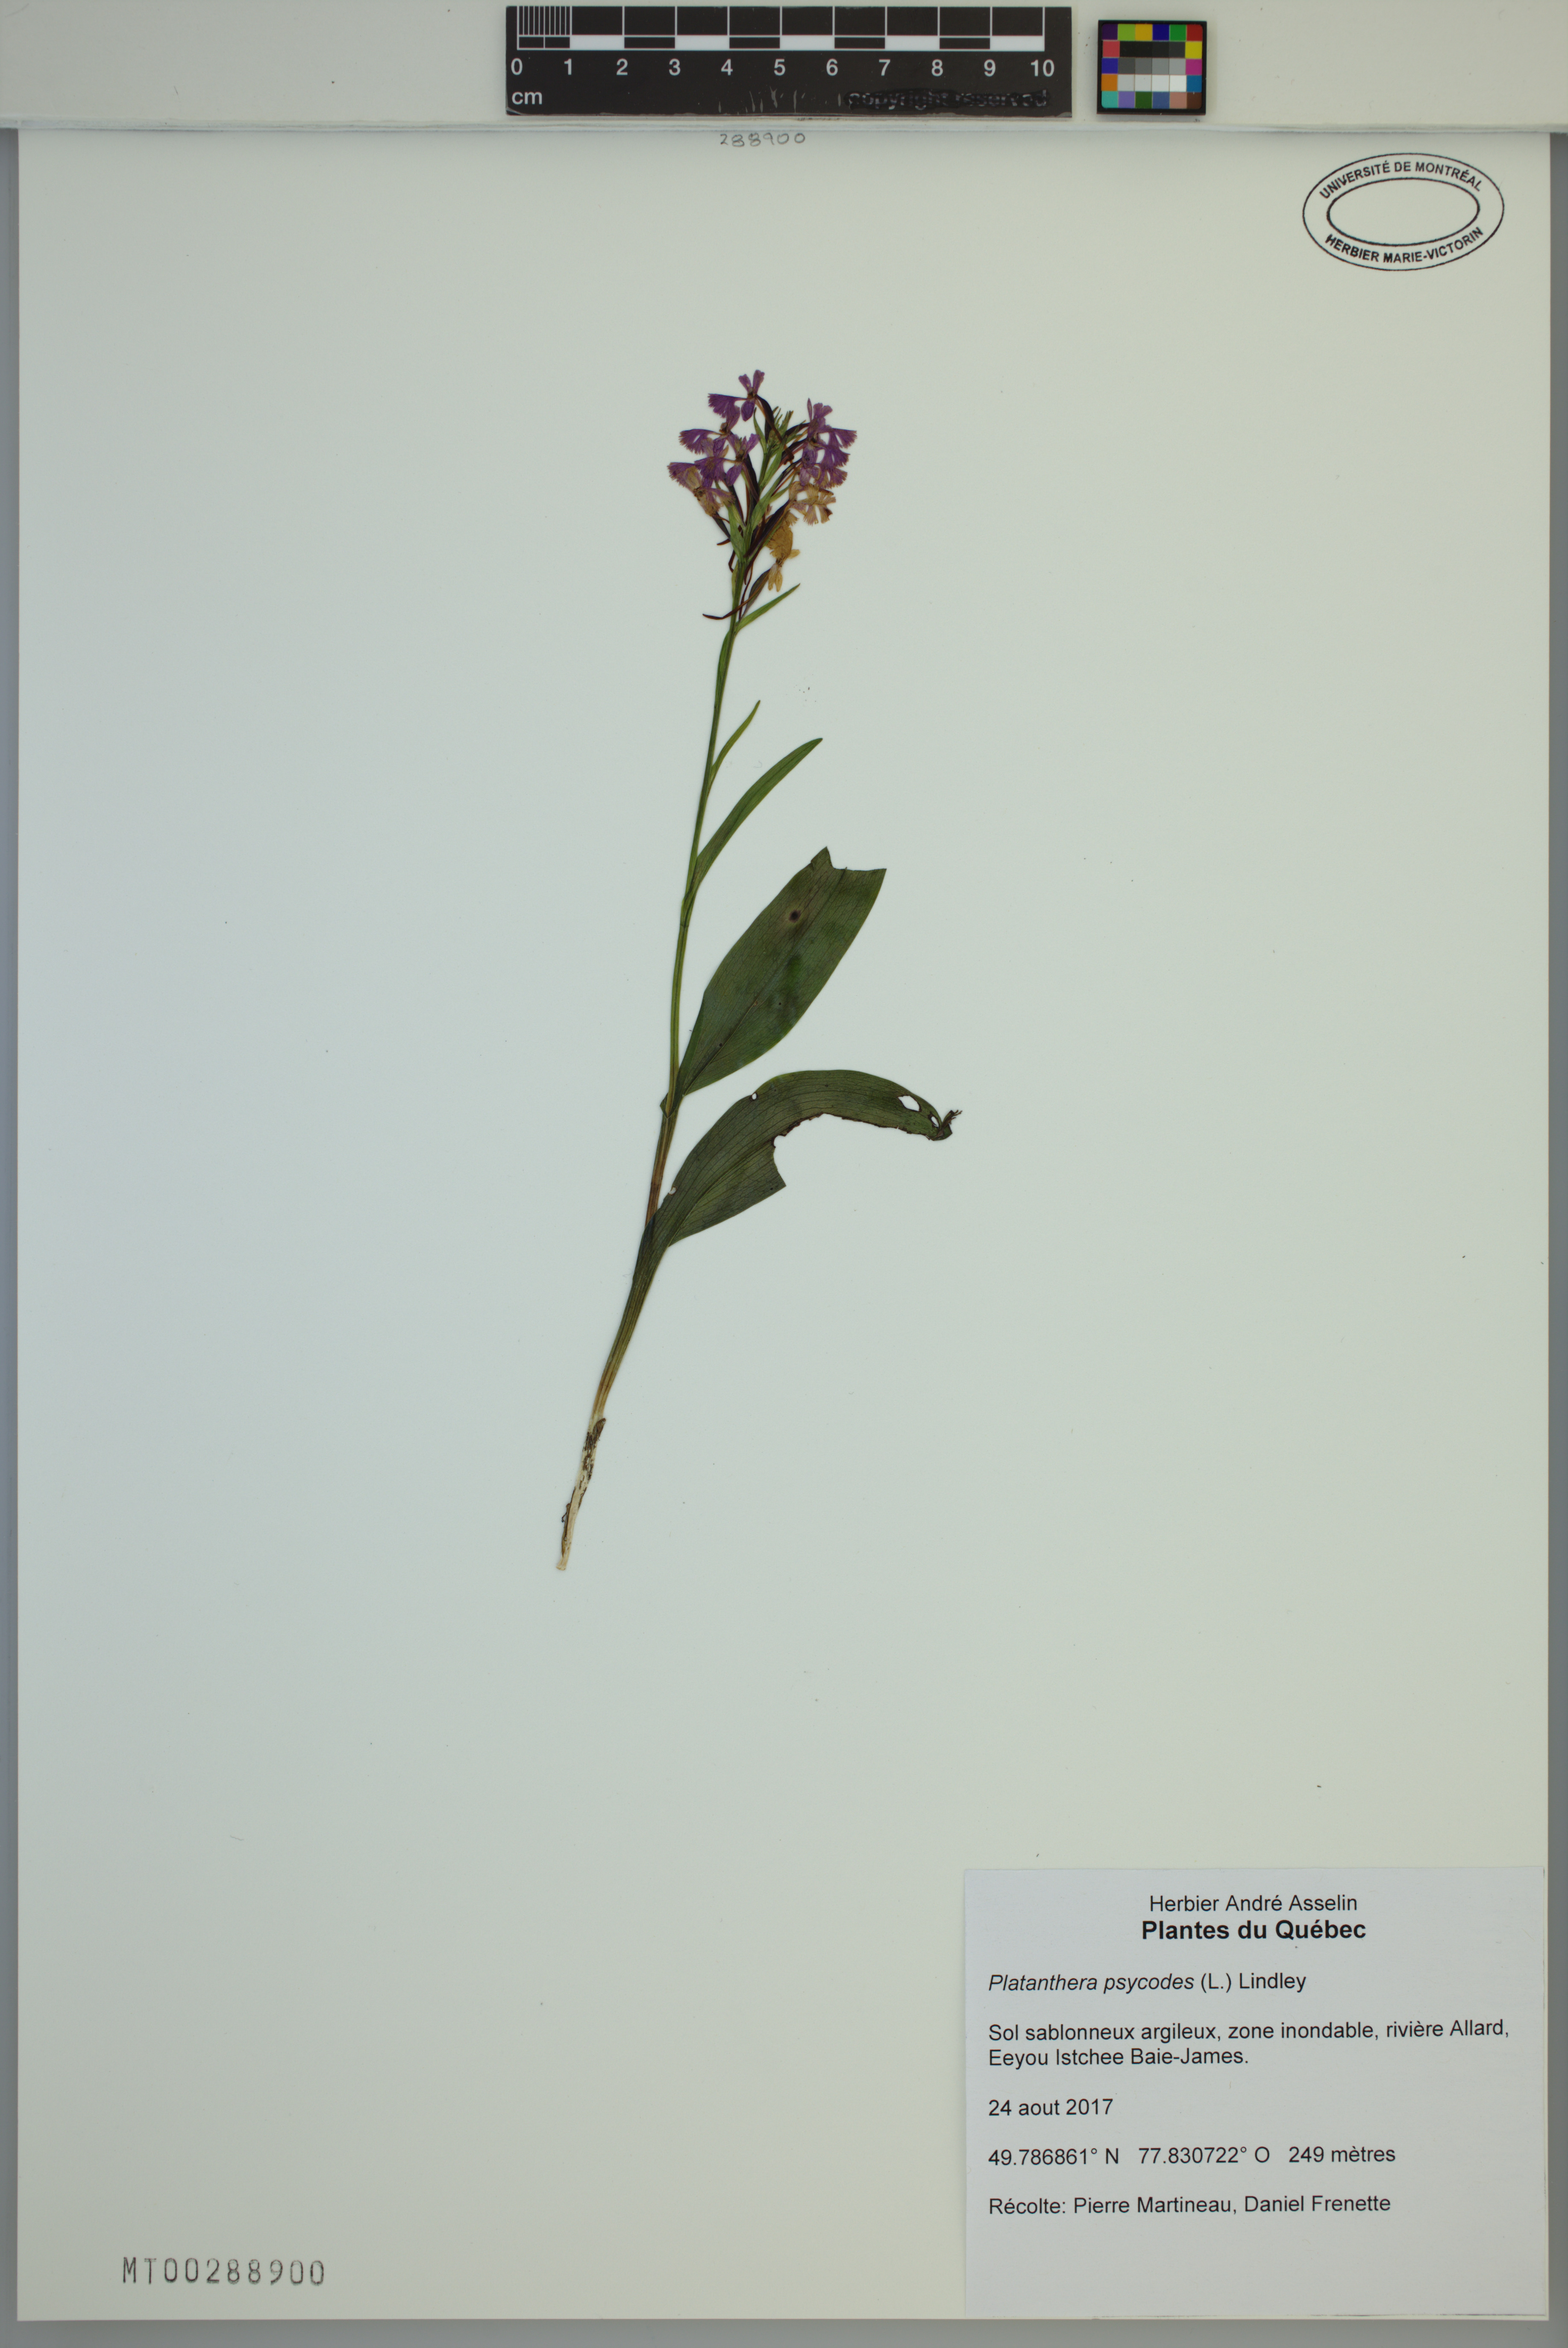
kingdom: Plantae
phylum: Tracheophyta
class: Liliopsida
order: Asparagales
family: Orchidaceae
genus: Platanthera
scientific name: Platanthera psycodes
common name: Lesser purple fringed orchid
